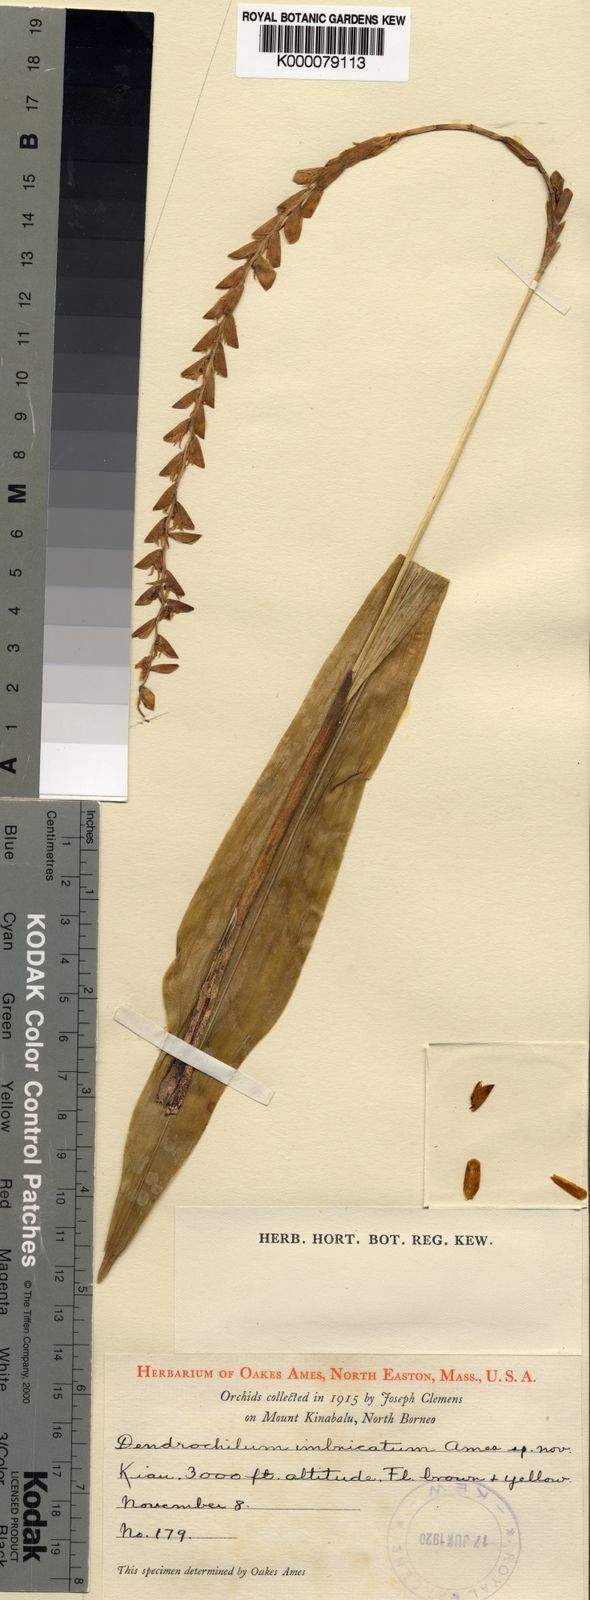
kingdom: Plantae
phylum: Tracheophyta
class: Liliopsida
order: Asparagales
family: Orchidaceae
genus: Coelogyne
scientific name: Coelogyne latens
